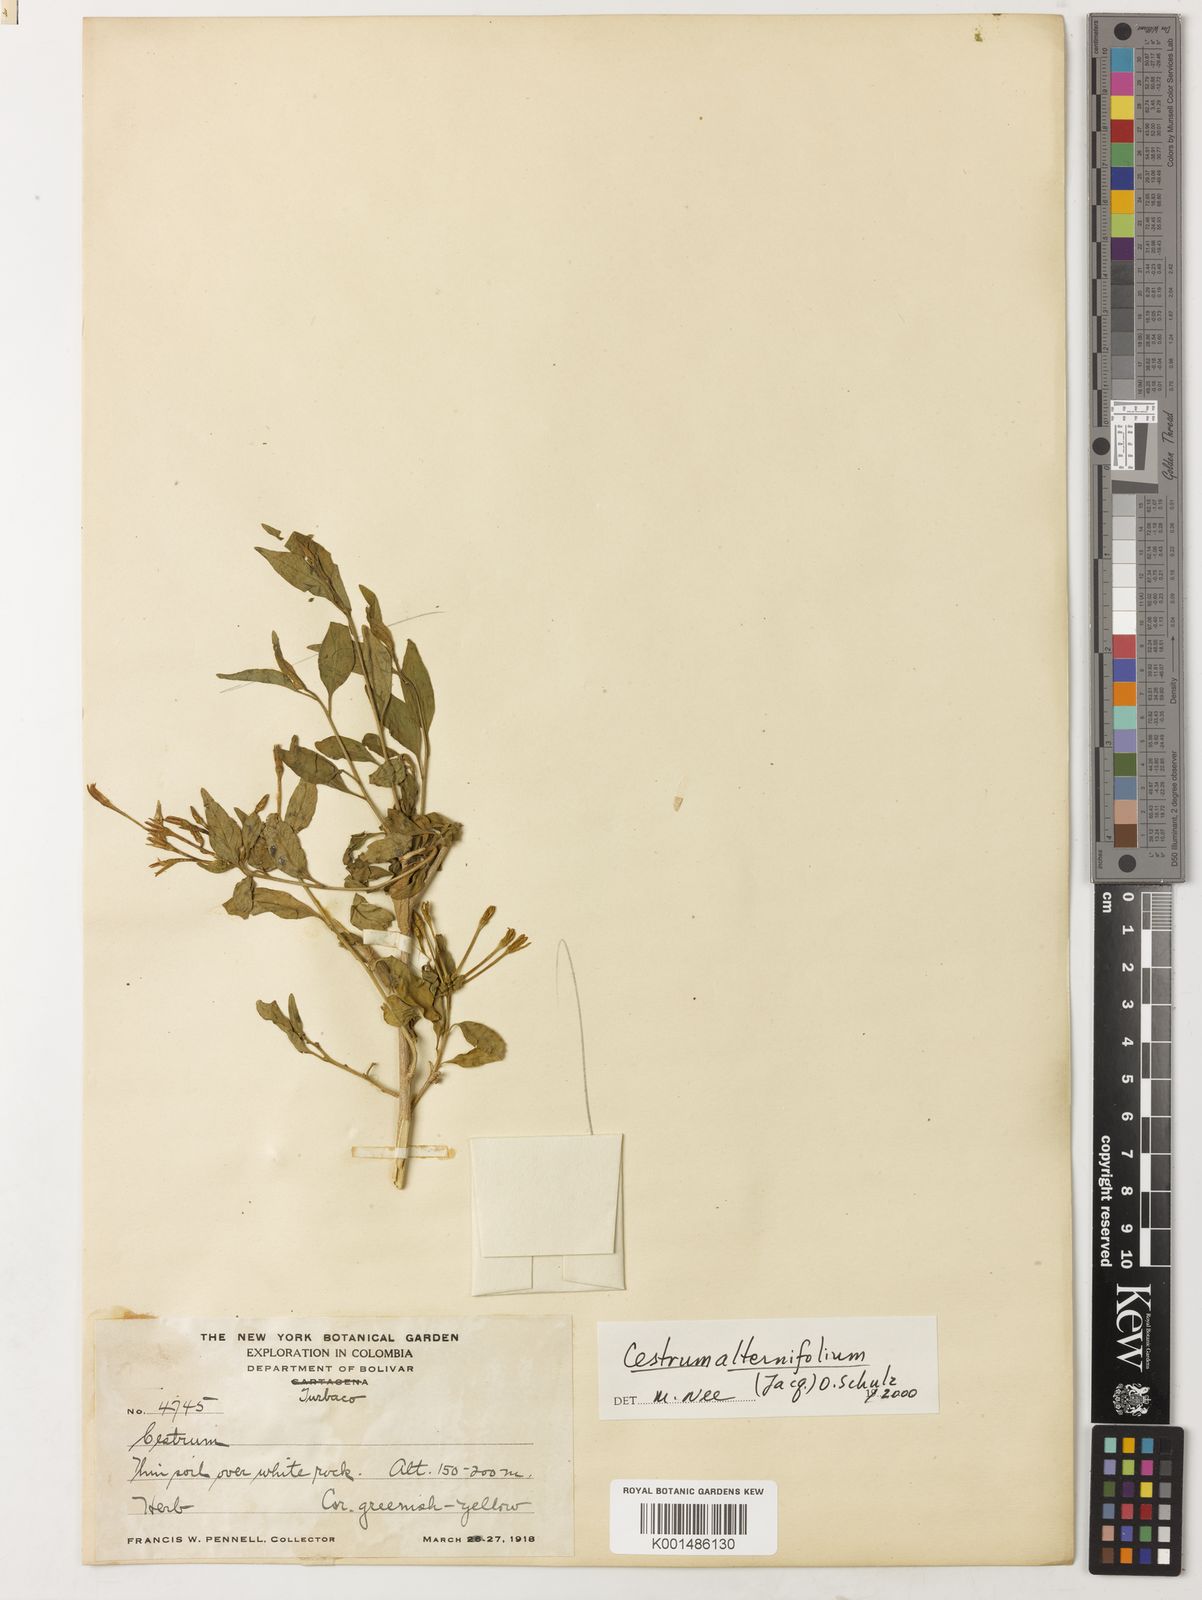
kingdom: Plantae
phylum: Tracheophyta
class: Magnoliopsida
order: Solanales
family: Solanaceae
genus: Cestrum
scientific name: Cestrum alternifolium
